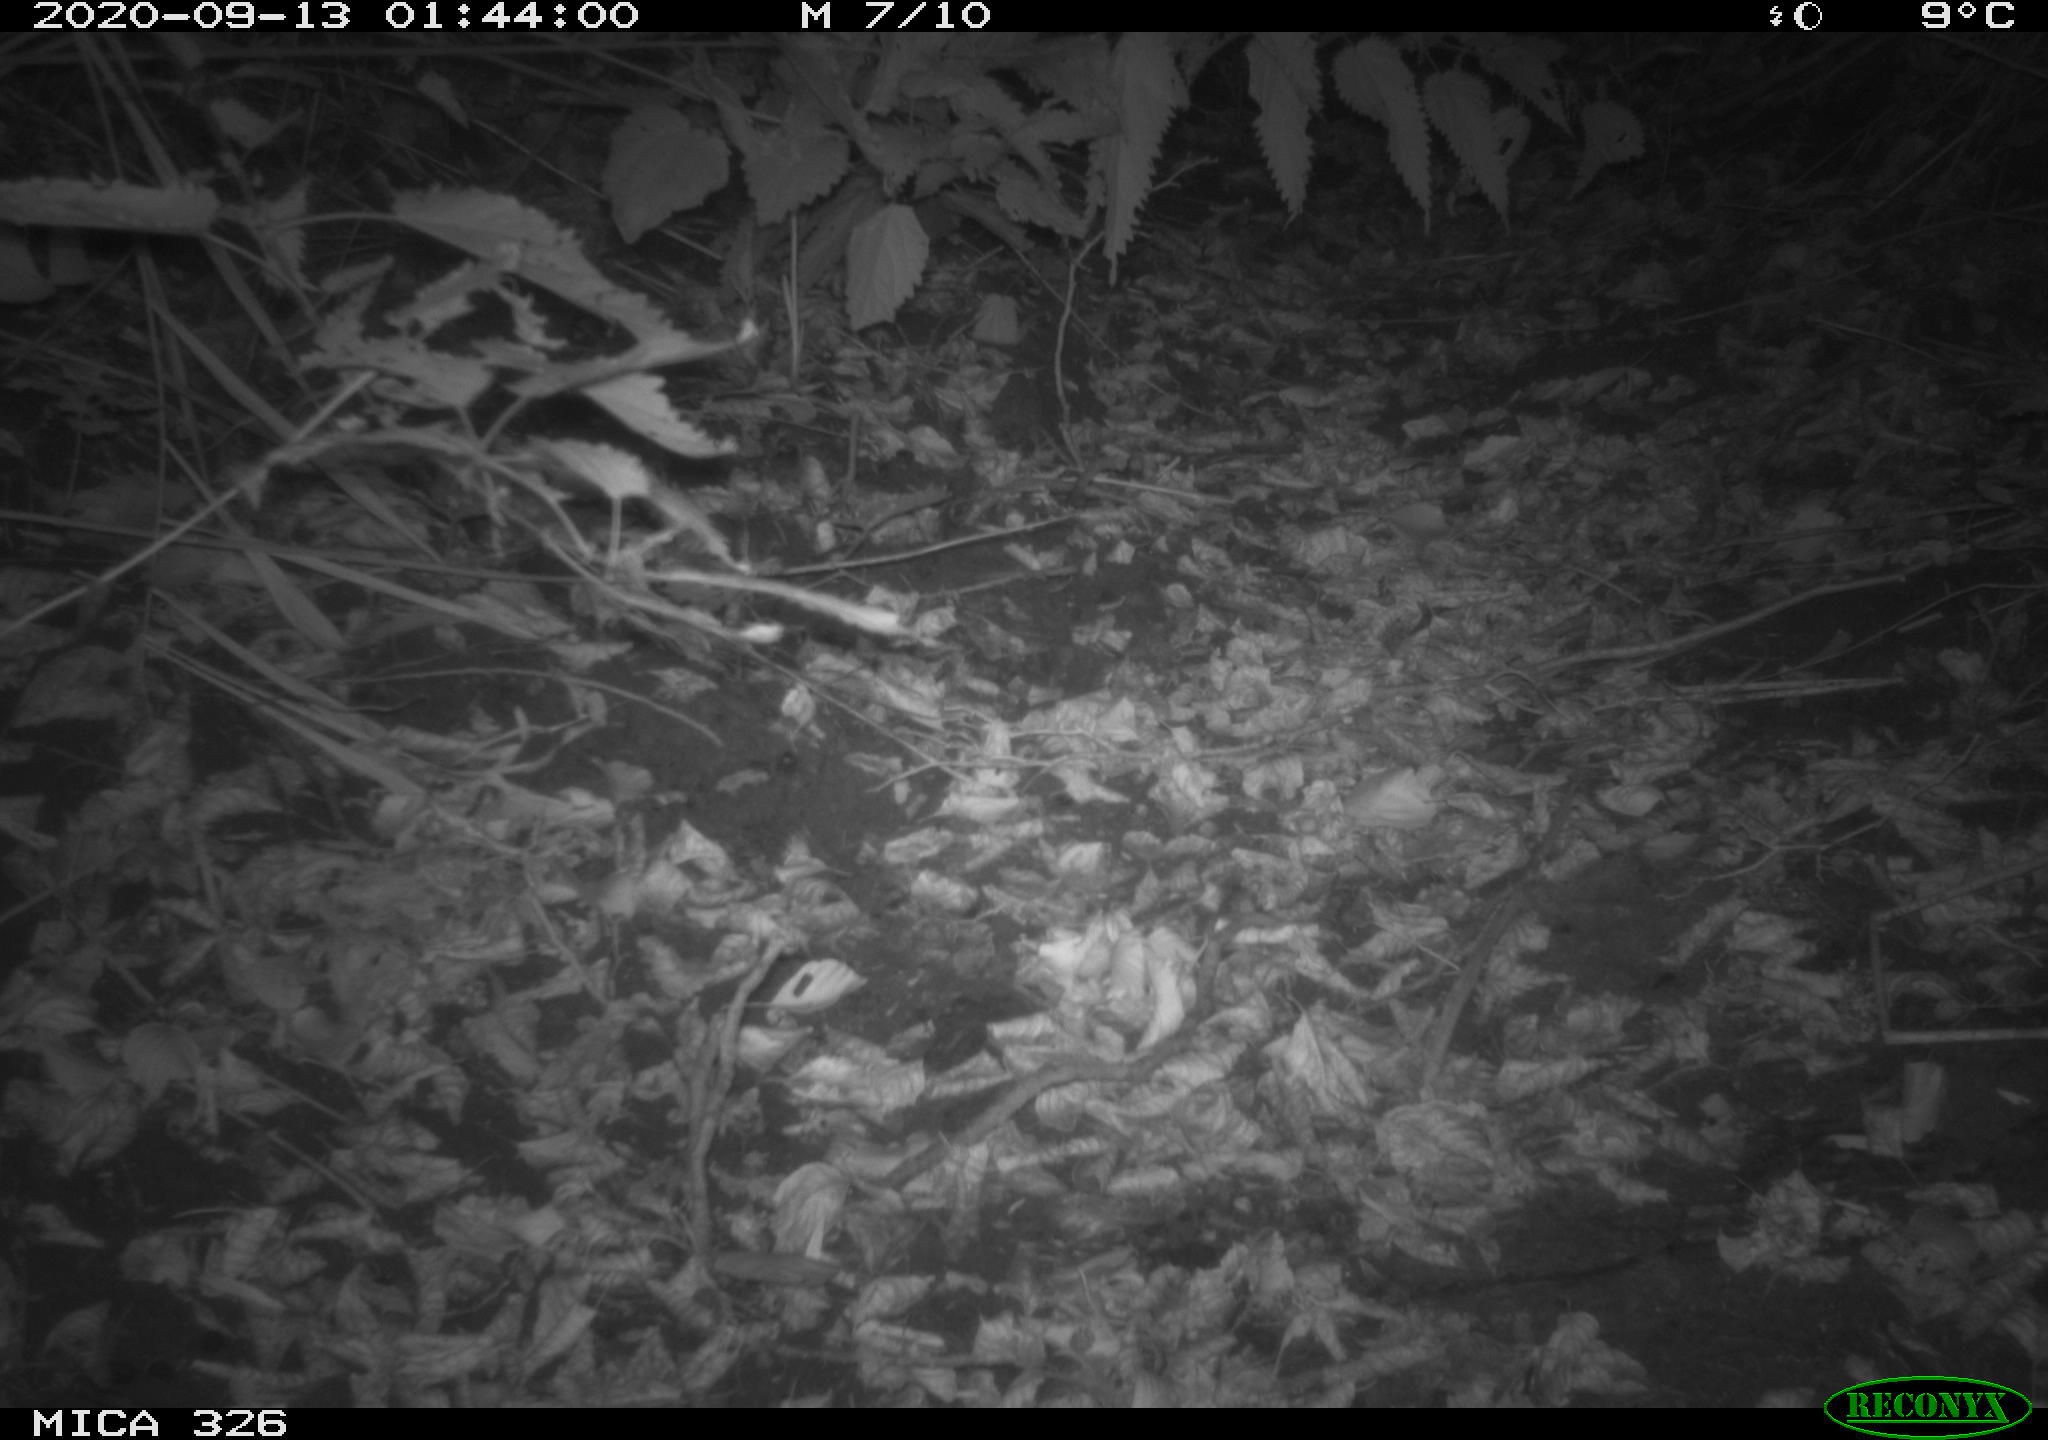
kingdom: Animalia
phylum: Chordata
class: Mammalia
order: Carnivora
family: Mustelidae
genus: Martes
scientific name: Martes foina
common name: Beech marten
